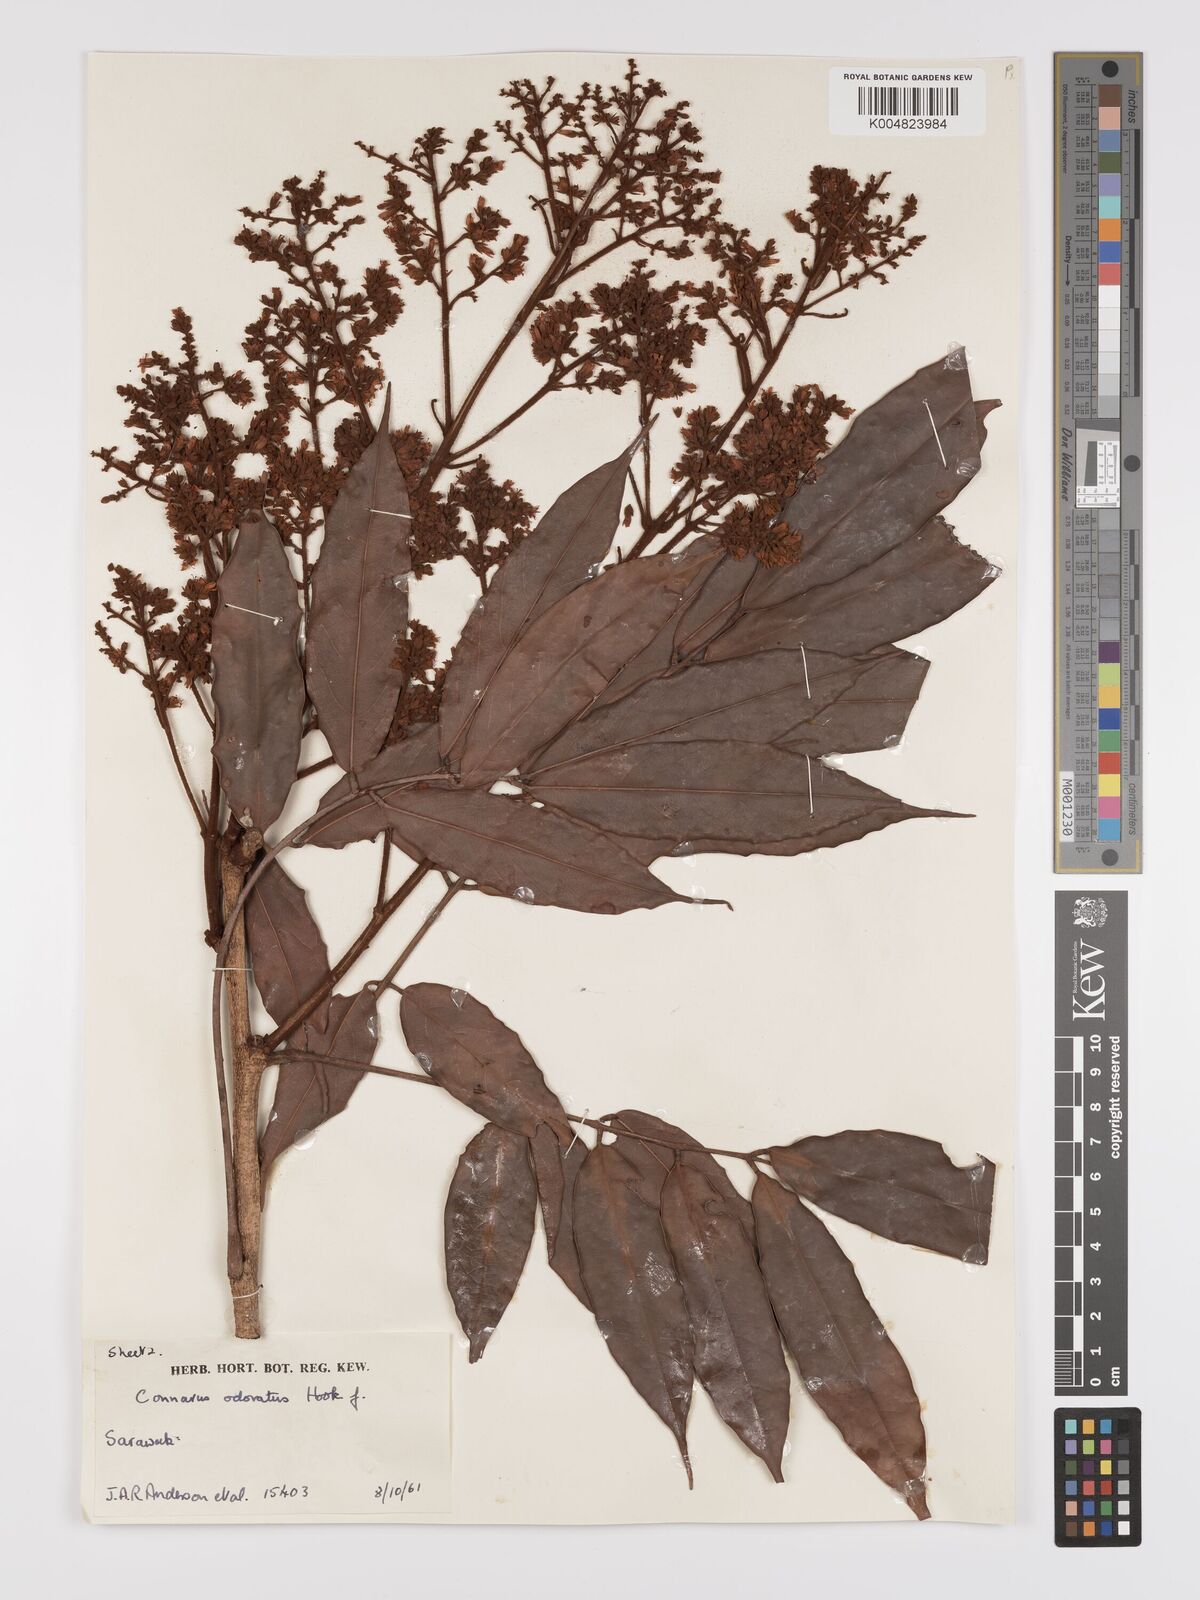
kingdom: Plantae
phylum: Tracheophyta
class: Magnoliopsida
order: Oxalidales
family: Connaraceae
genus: Connarus
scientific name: Connarus odoratus
